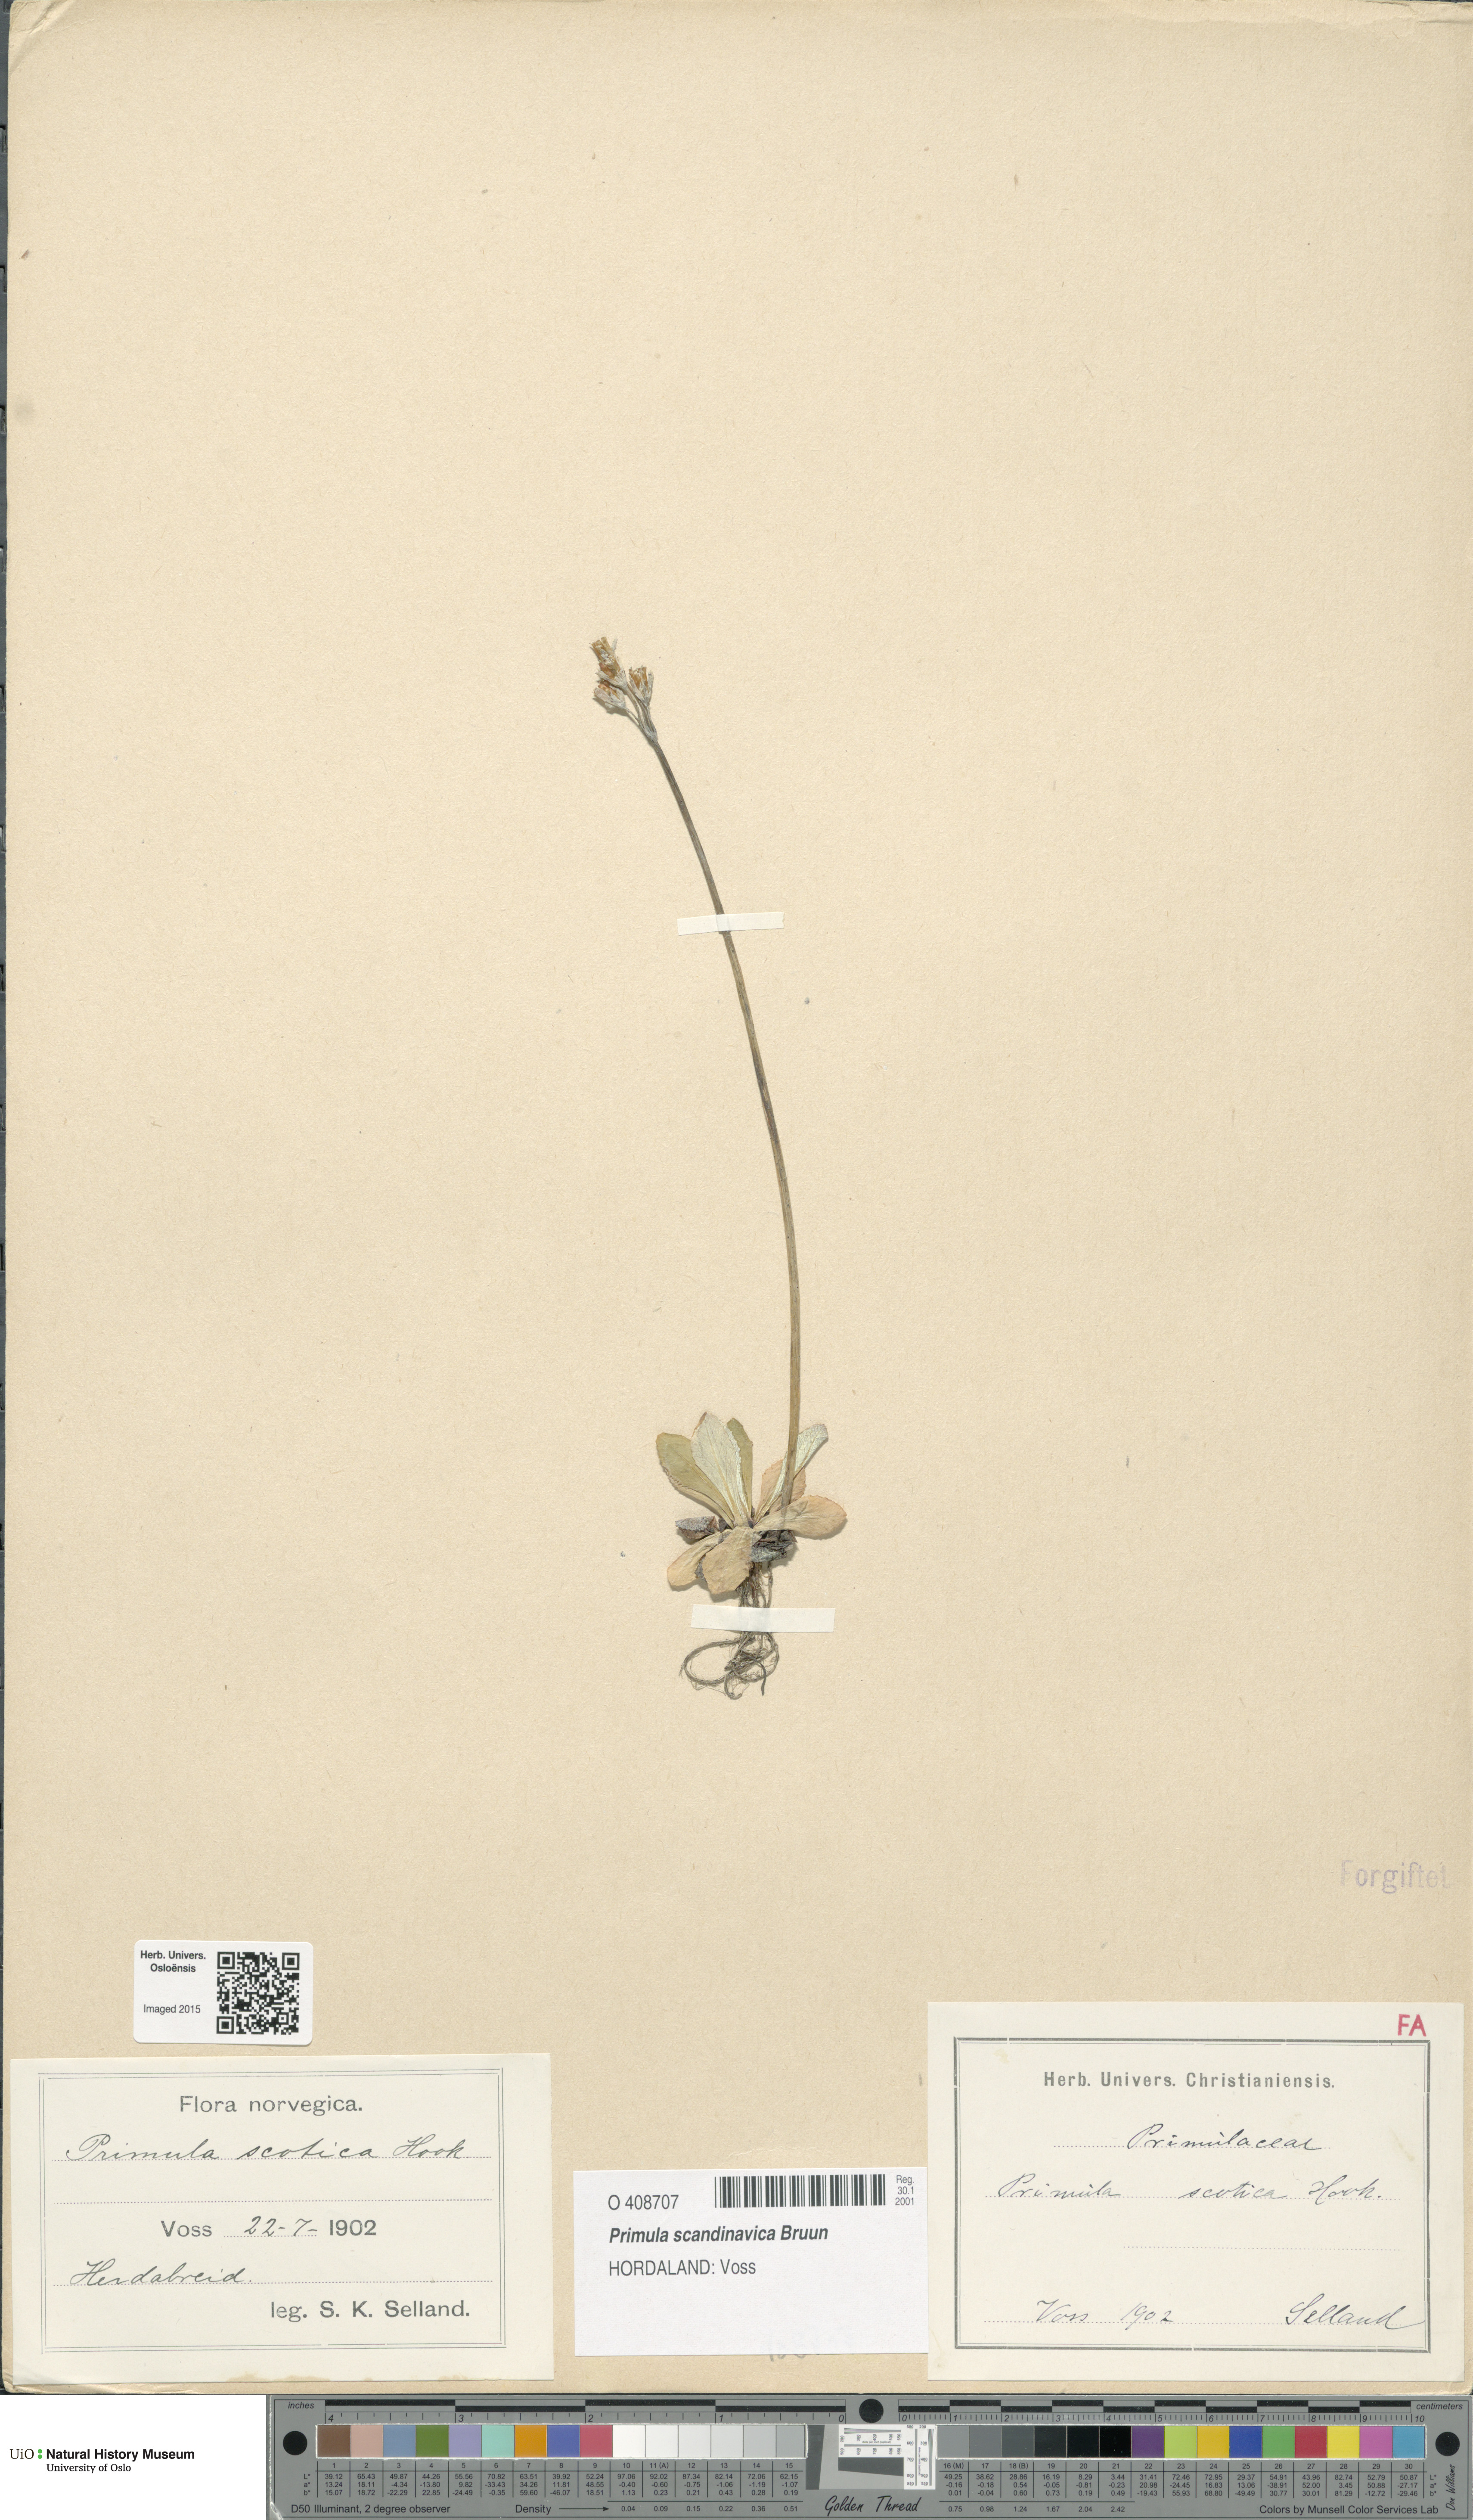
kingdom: Plantae
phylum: Tracheophyta
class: Magnoliopsida
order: Ericales
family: Primulaceae
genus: Primula
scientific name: Primula scandinavica
